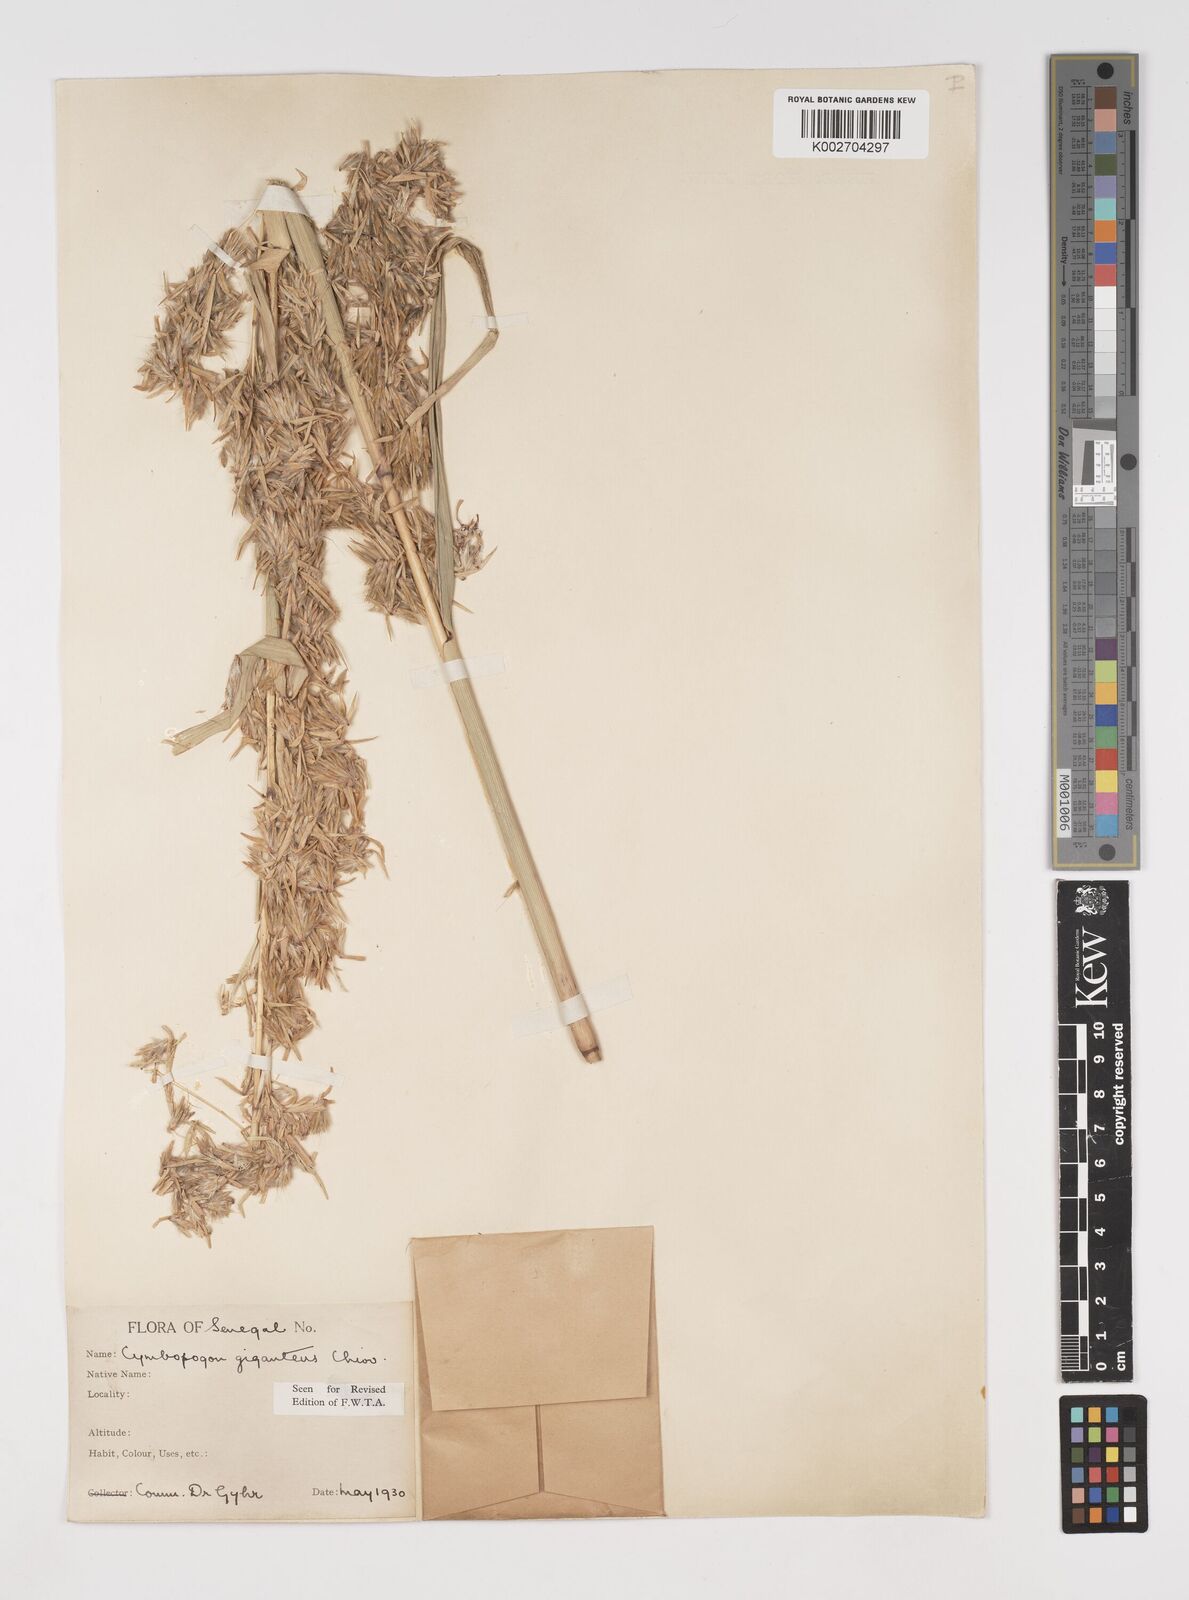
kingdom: Plantae
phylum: Tracheophyta
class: Liliopsida
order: Poales
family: Poaceae
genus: Cymbopogon
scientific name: Cymbopogon giganteus
